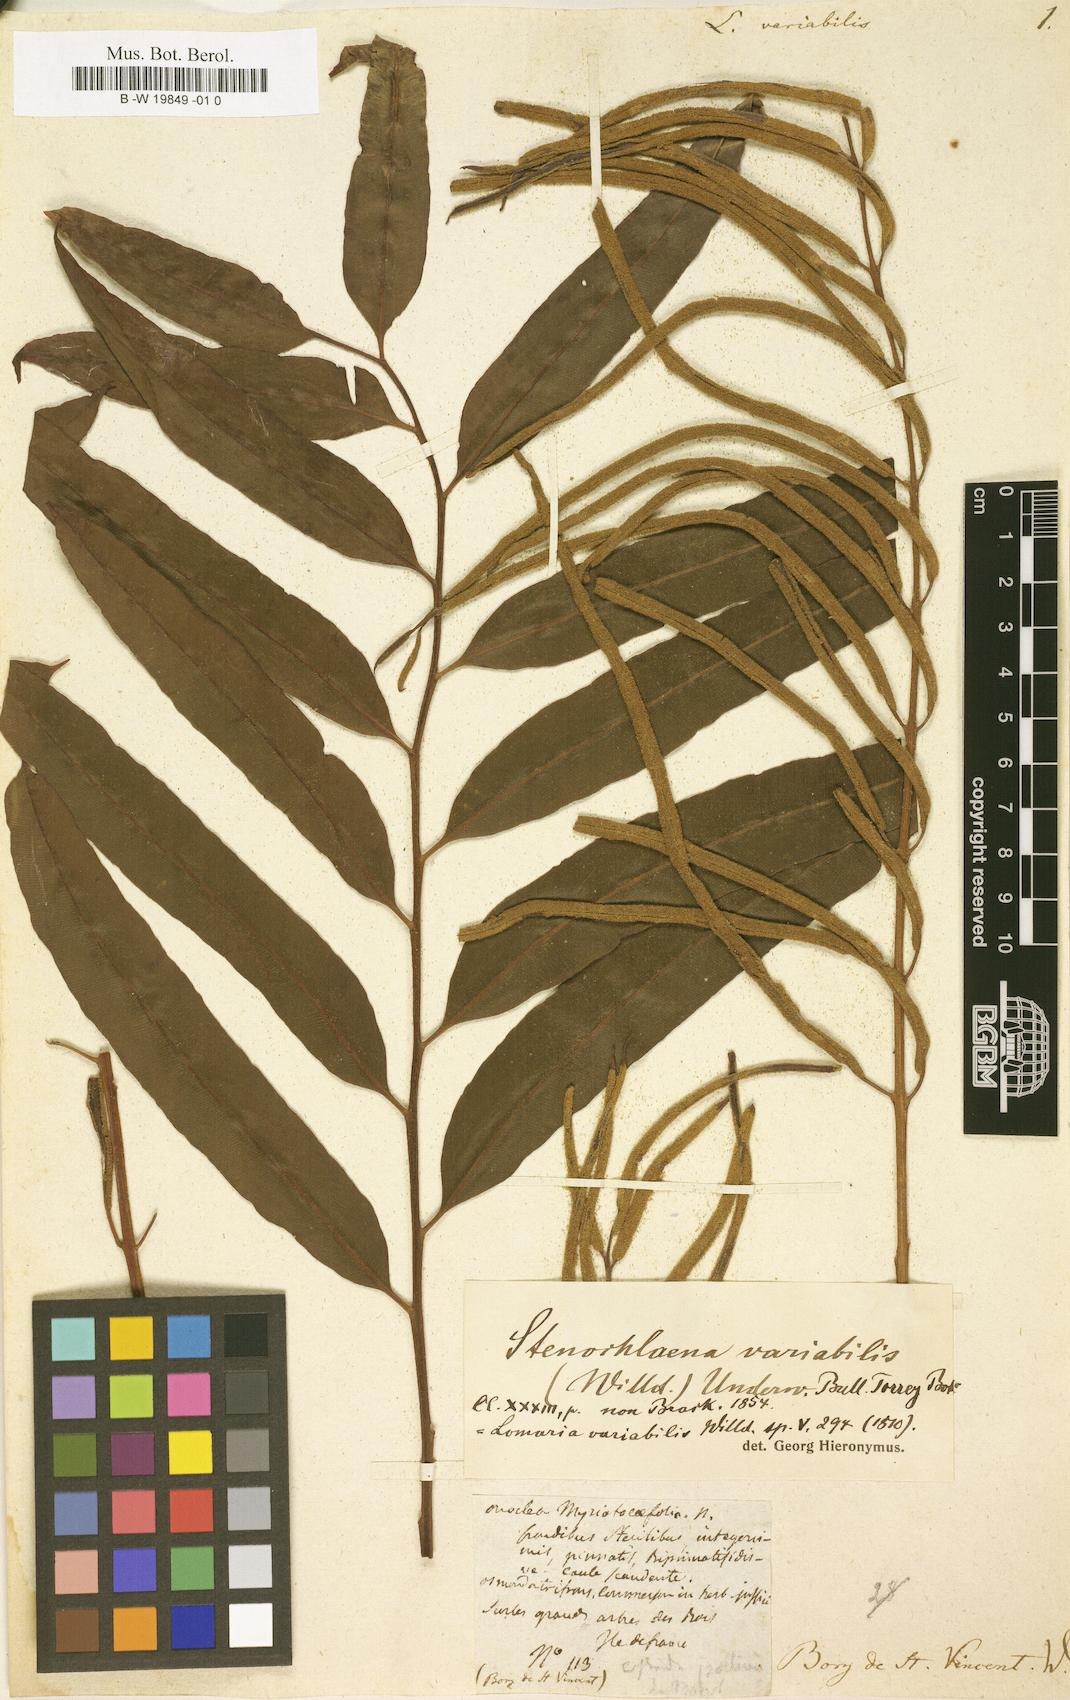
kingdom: Plantae
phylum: Tracheophyta
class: Polypodiopsida
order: Polypodiales
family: Lomariopsidaceae
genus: Lomariopsis
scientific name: Lomariopsis
